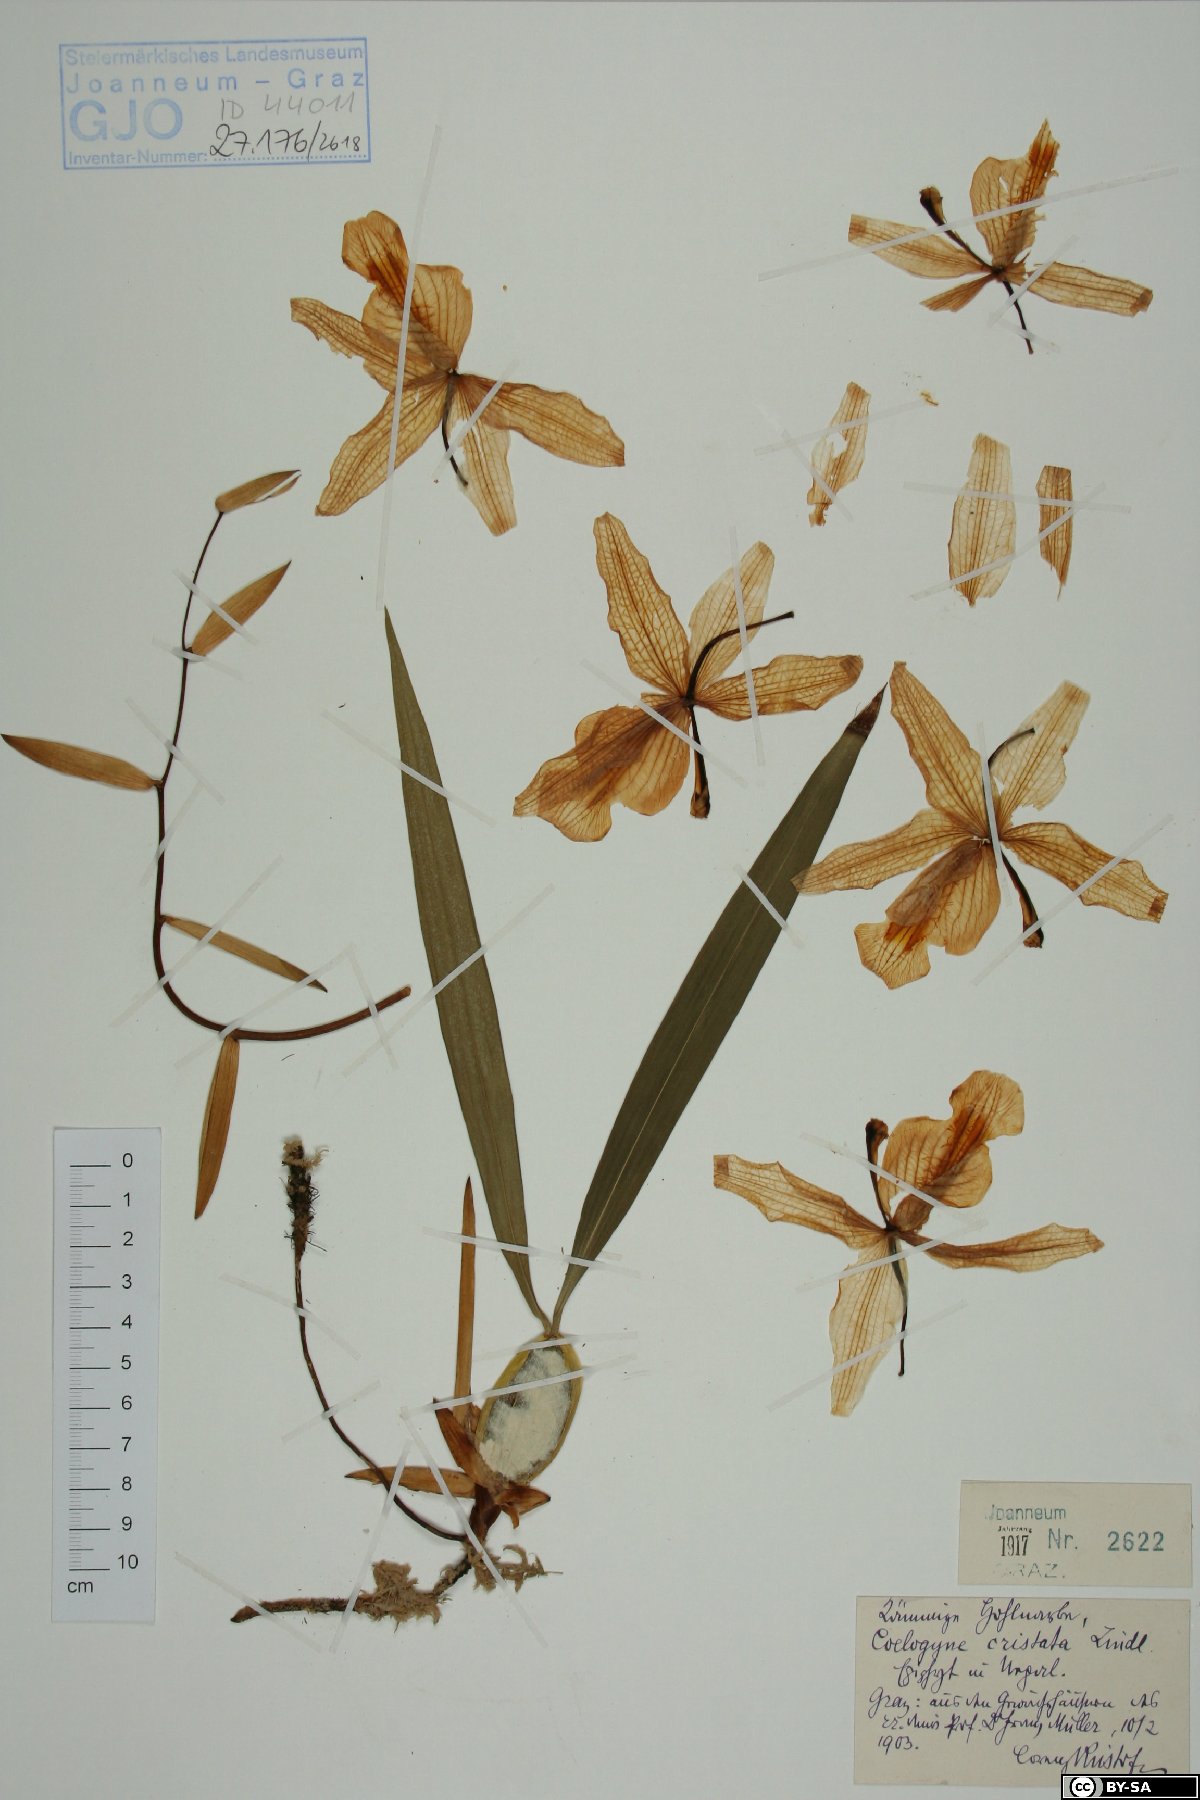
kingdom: Plantae
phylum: Tracheophyta
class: Liliopsida
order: Asparagales
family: Orchidaceae
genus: Coelogyne
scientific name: Coelogyne cristata
